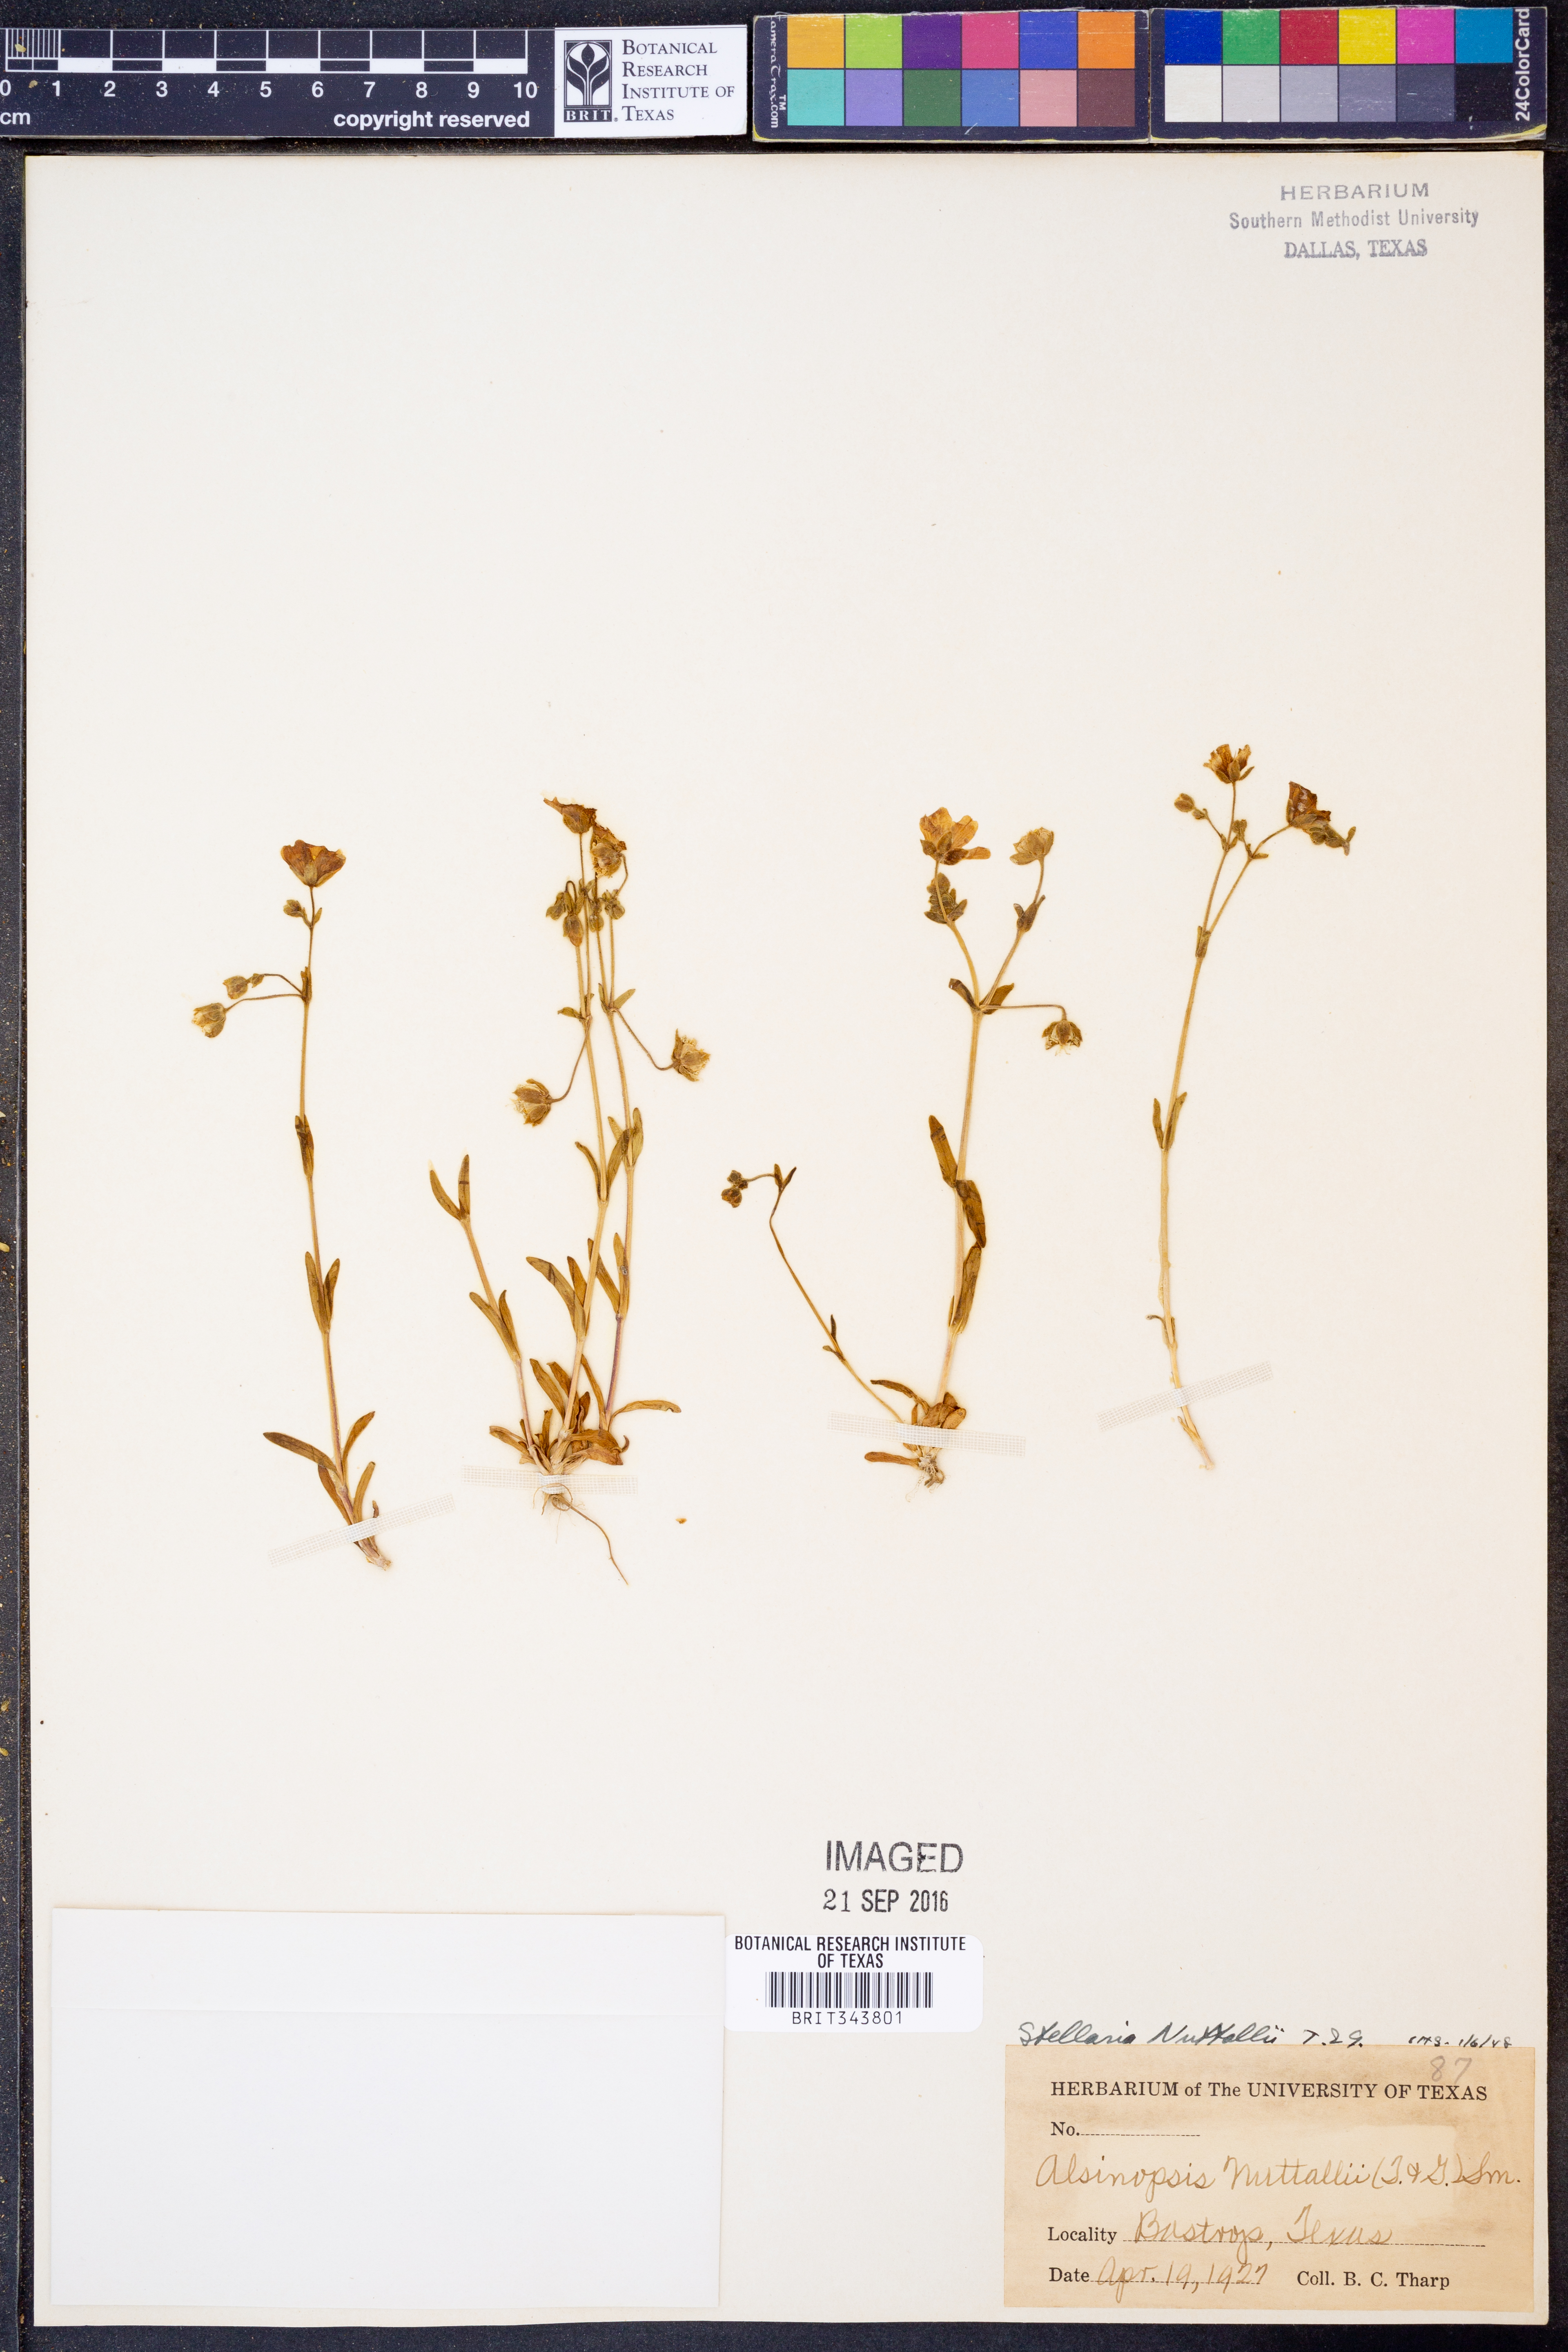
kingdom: Plantae
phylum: Tracheophyta
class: Magnoliopsida
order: Caryophyllales
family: Caryophyllaceae
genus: Geocarpon
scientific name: Geocarpon nuttallii
